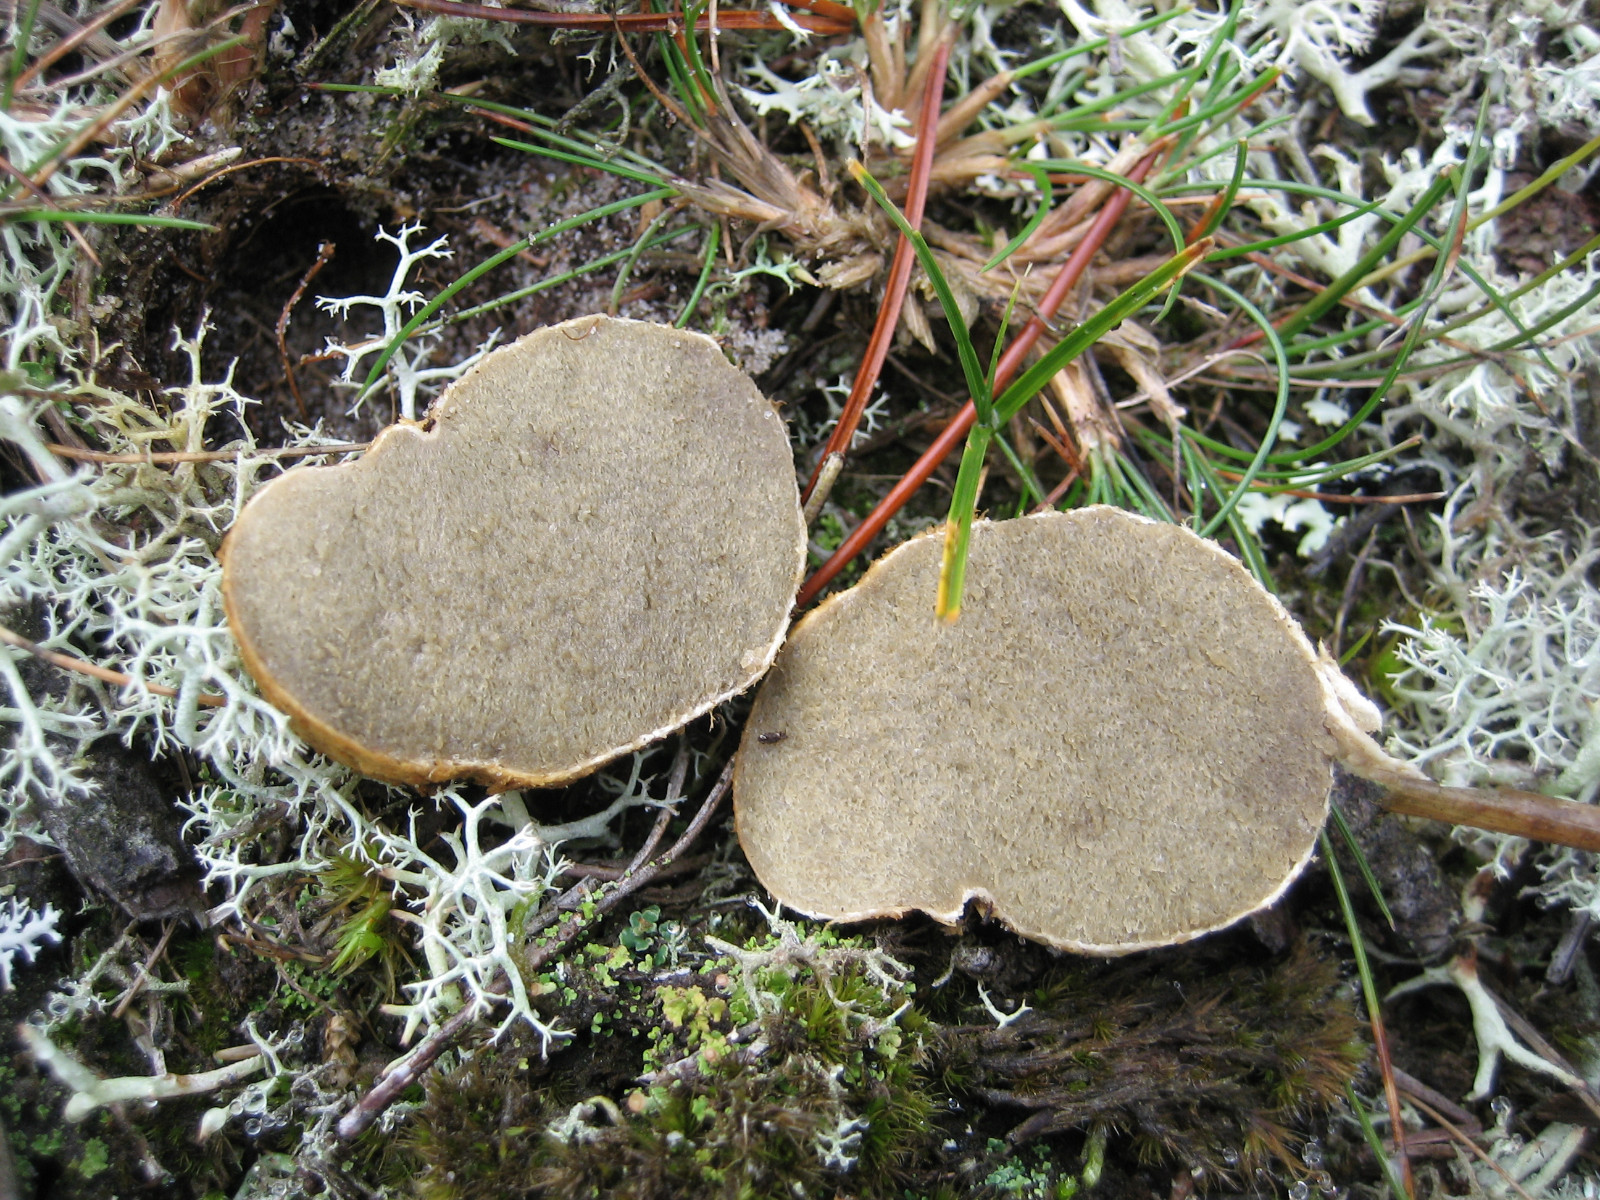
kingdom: Fungi
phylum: Basidiomycota
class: Agaricomycetes
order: Boletales
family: Rhizopogonaceae
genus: Rhizopogon
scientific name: Rhizopogon obtextus
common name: gul skægtrøffel
